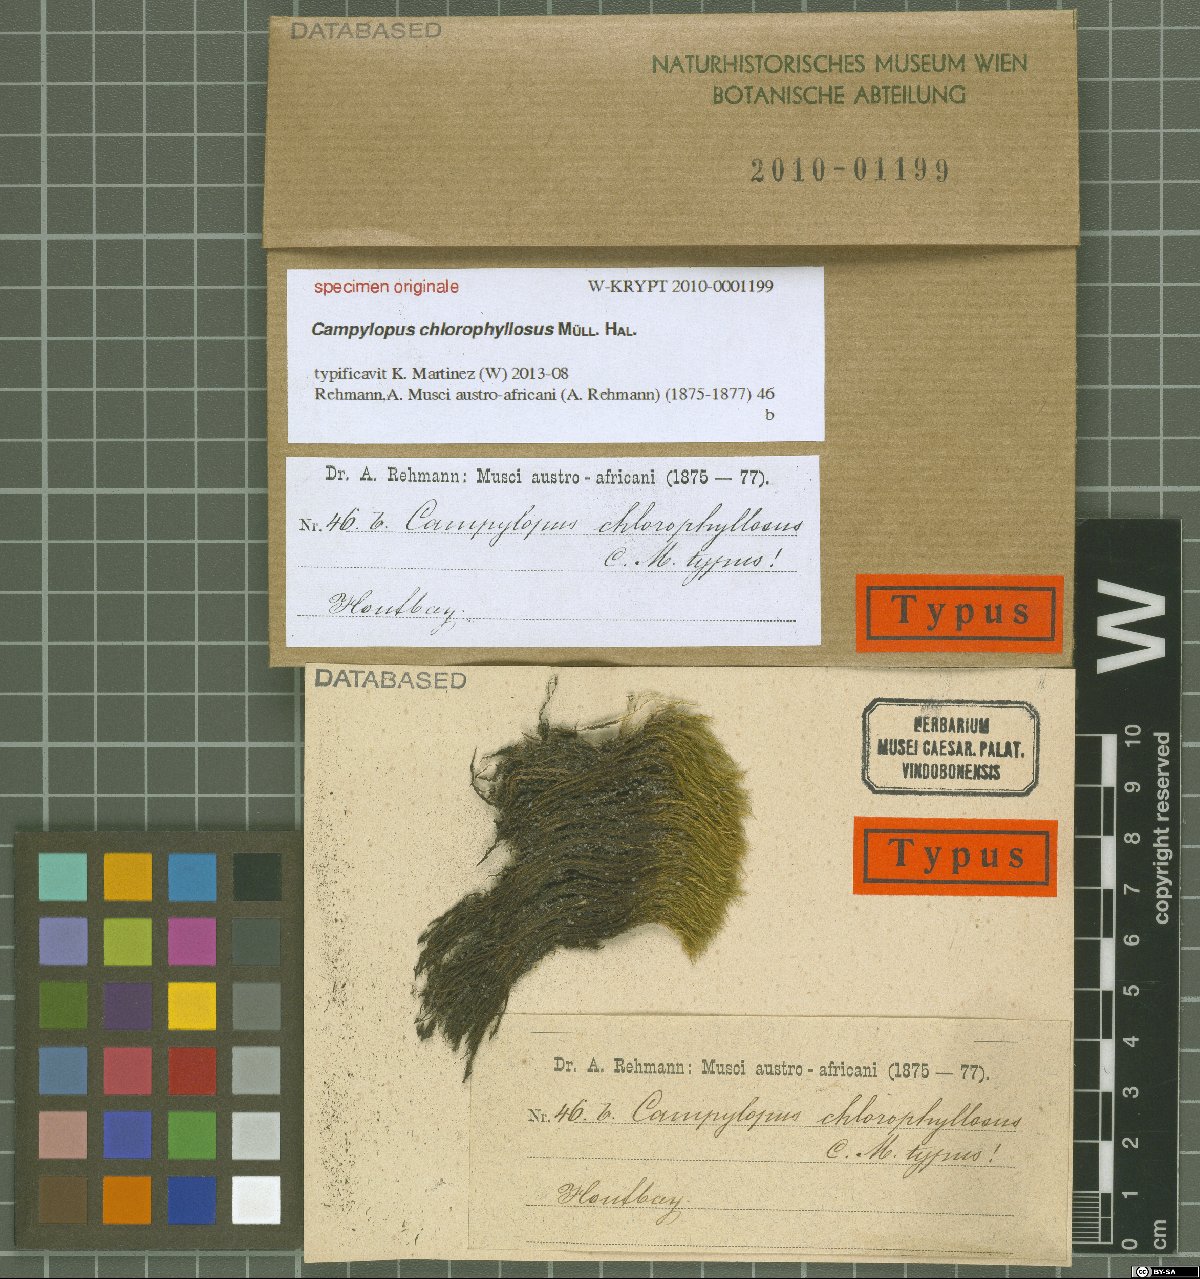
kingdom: Protozoa
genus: Campylopus
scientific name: Campylopus
